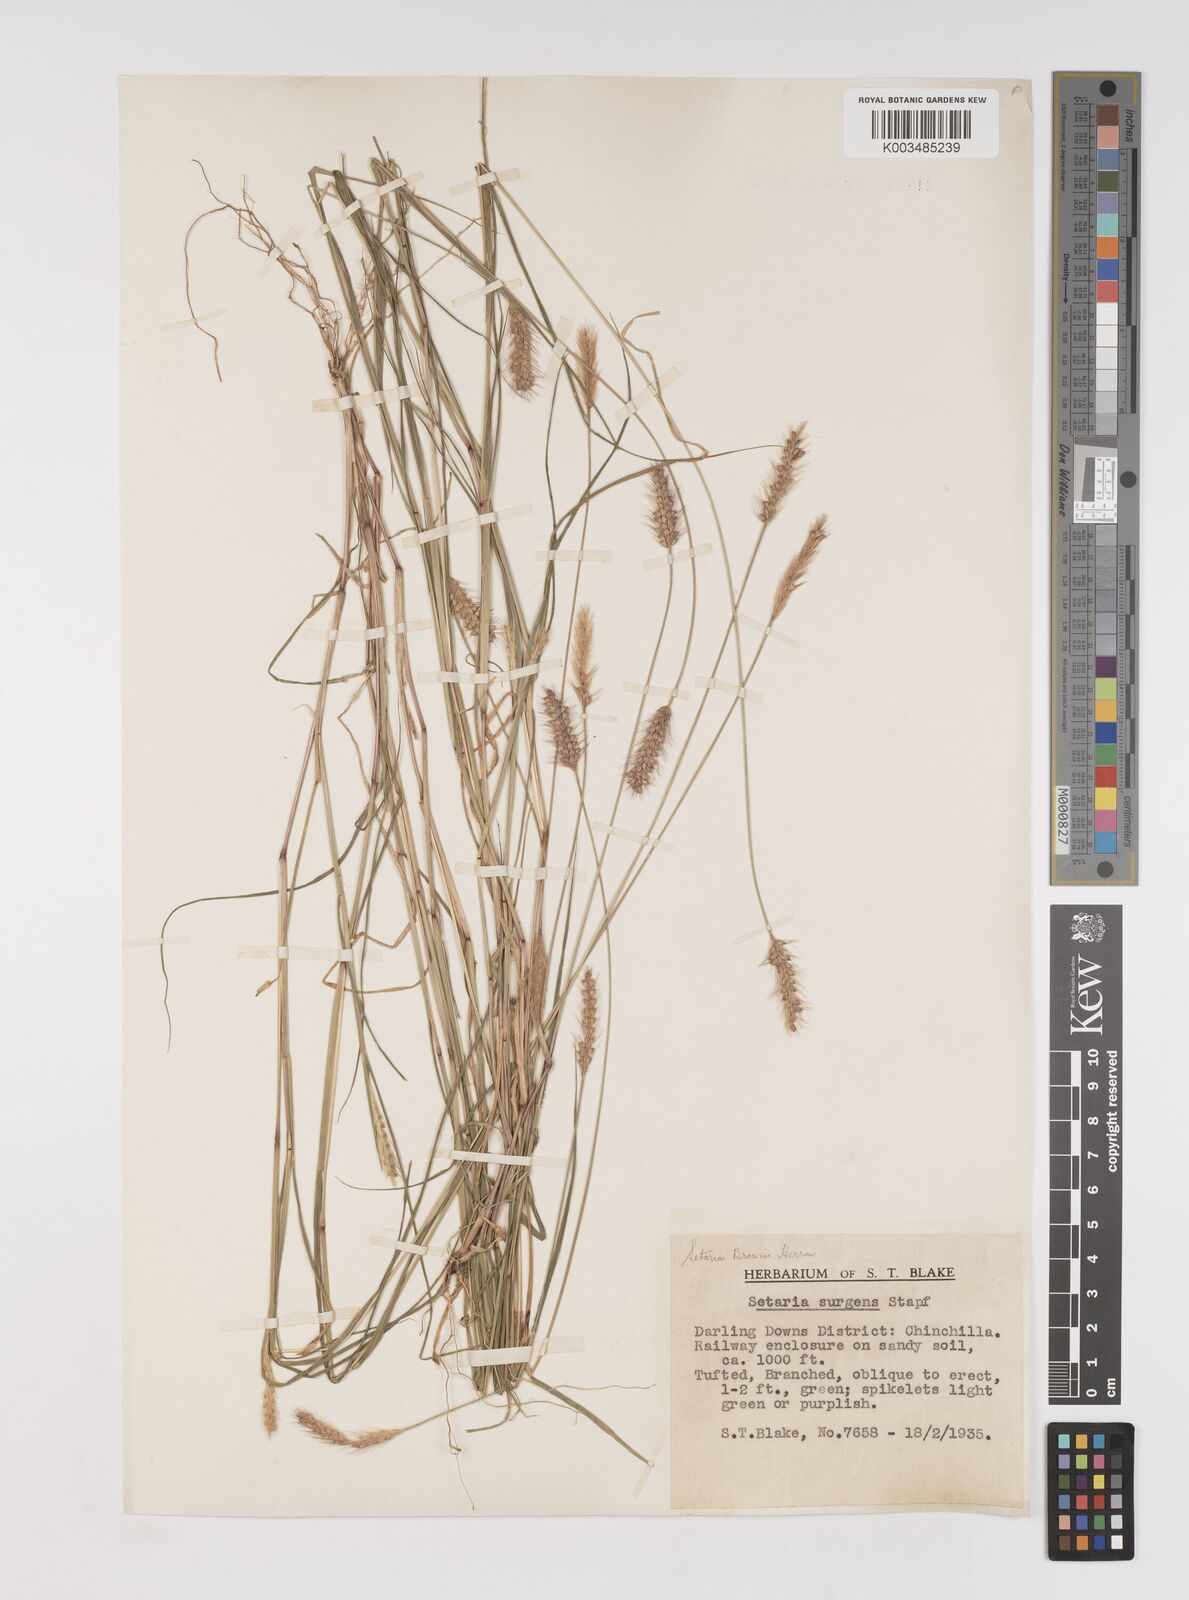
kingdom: Plantae
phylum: Tracheophyta
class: Liliopsida
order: Poales
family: Poaceae
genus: Setaria
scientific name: Setaria surgens
